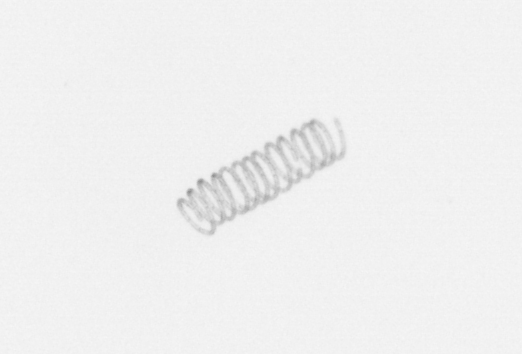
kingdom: Chromista
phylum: Ochrophyta
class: Bacillariophyceae
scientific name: Bacillariophyceae
